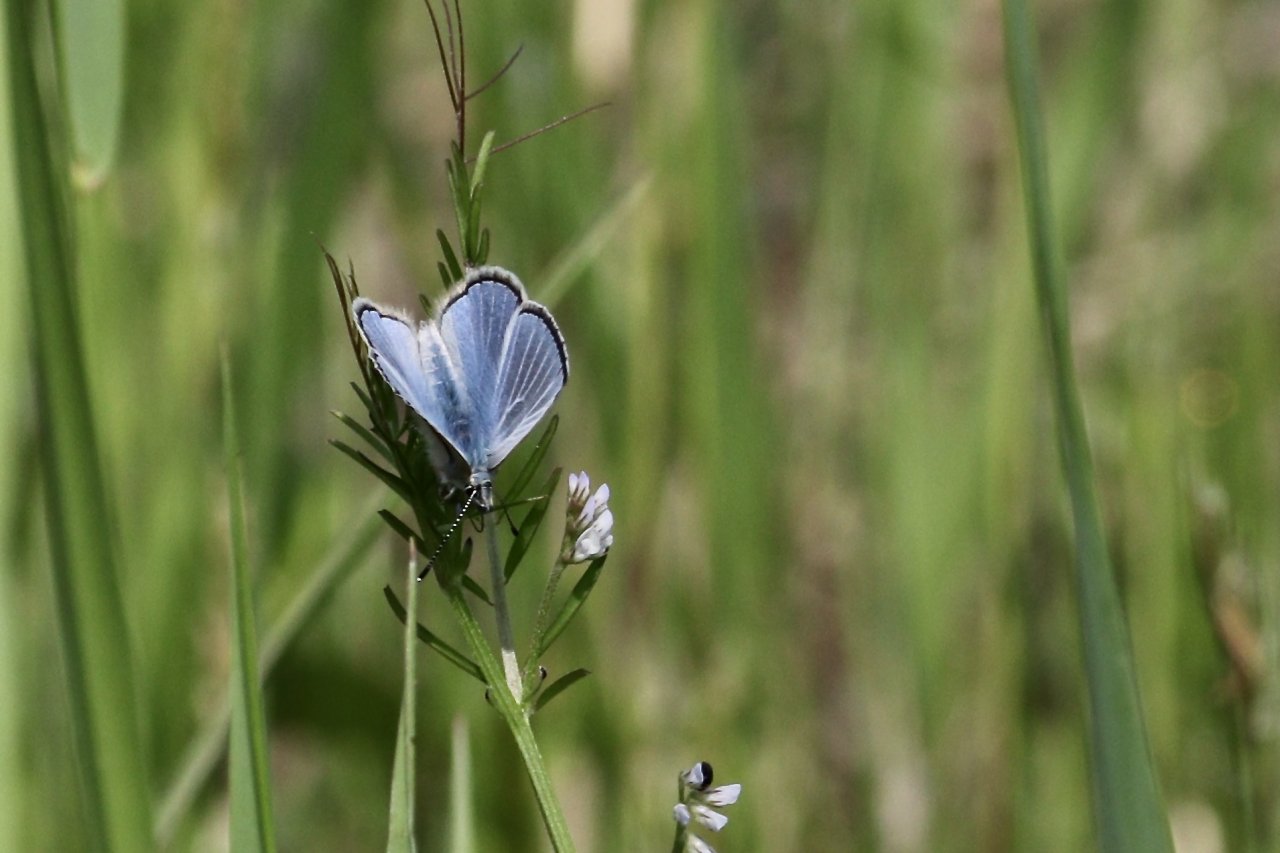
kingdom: Animalia
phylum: Arthropoda
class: Insecta
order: Lepidoptera
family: Lycaenidae
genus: Glaucopsyche
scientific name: Glaucopsyche lygdamus
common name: Silvery Blue
